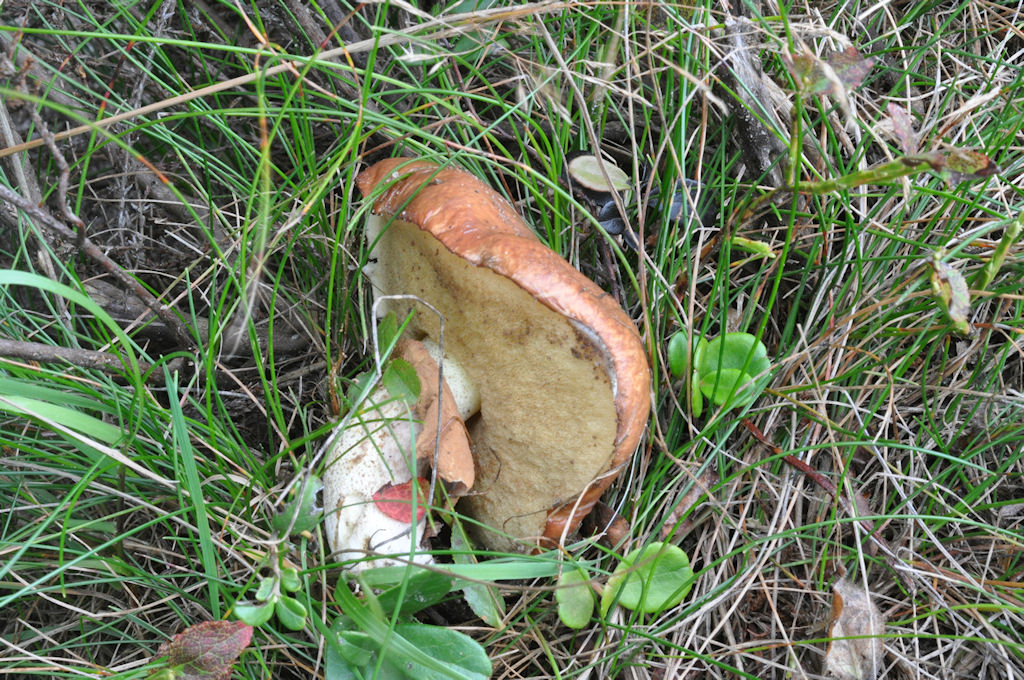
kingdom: Fungi
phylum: Basidiomycota
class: Agaricomycetes
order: Boletales
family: Suillaceae
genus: Suillus
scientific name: Suillus luteus
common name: brungul slimrørhat
